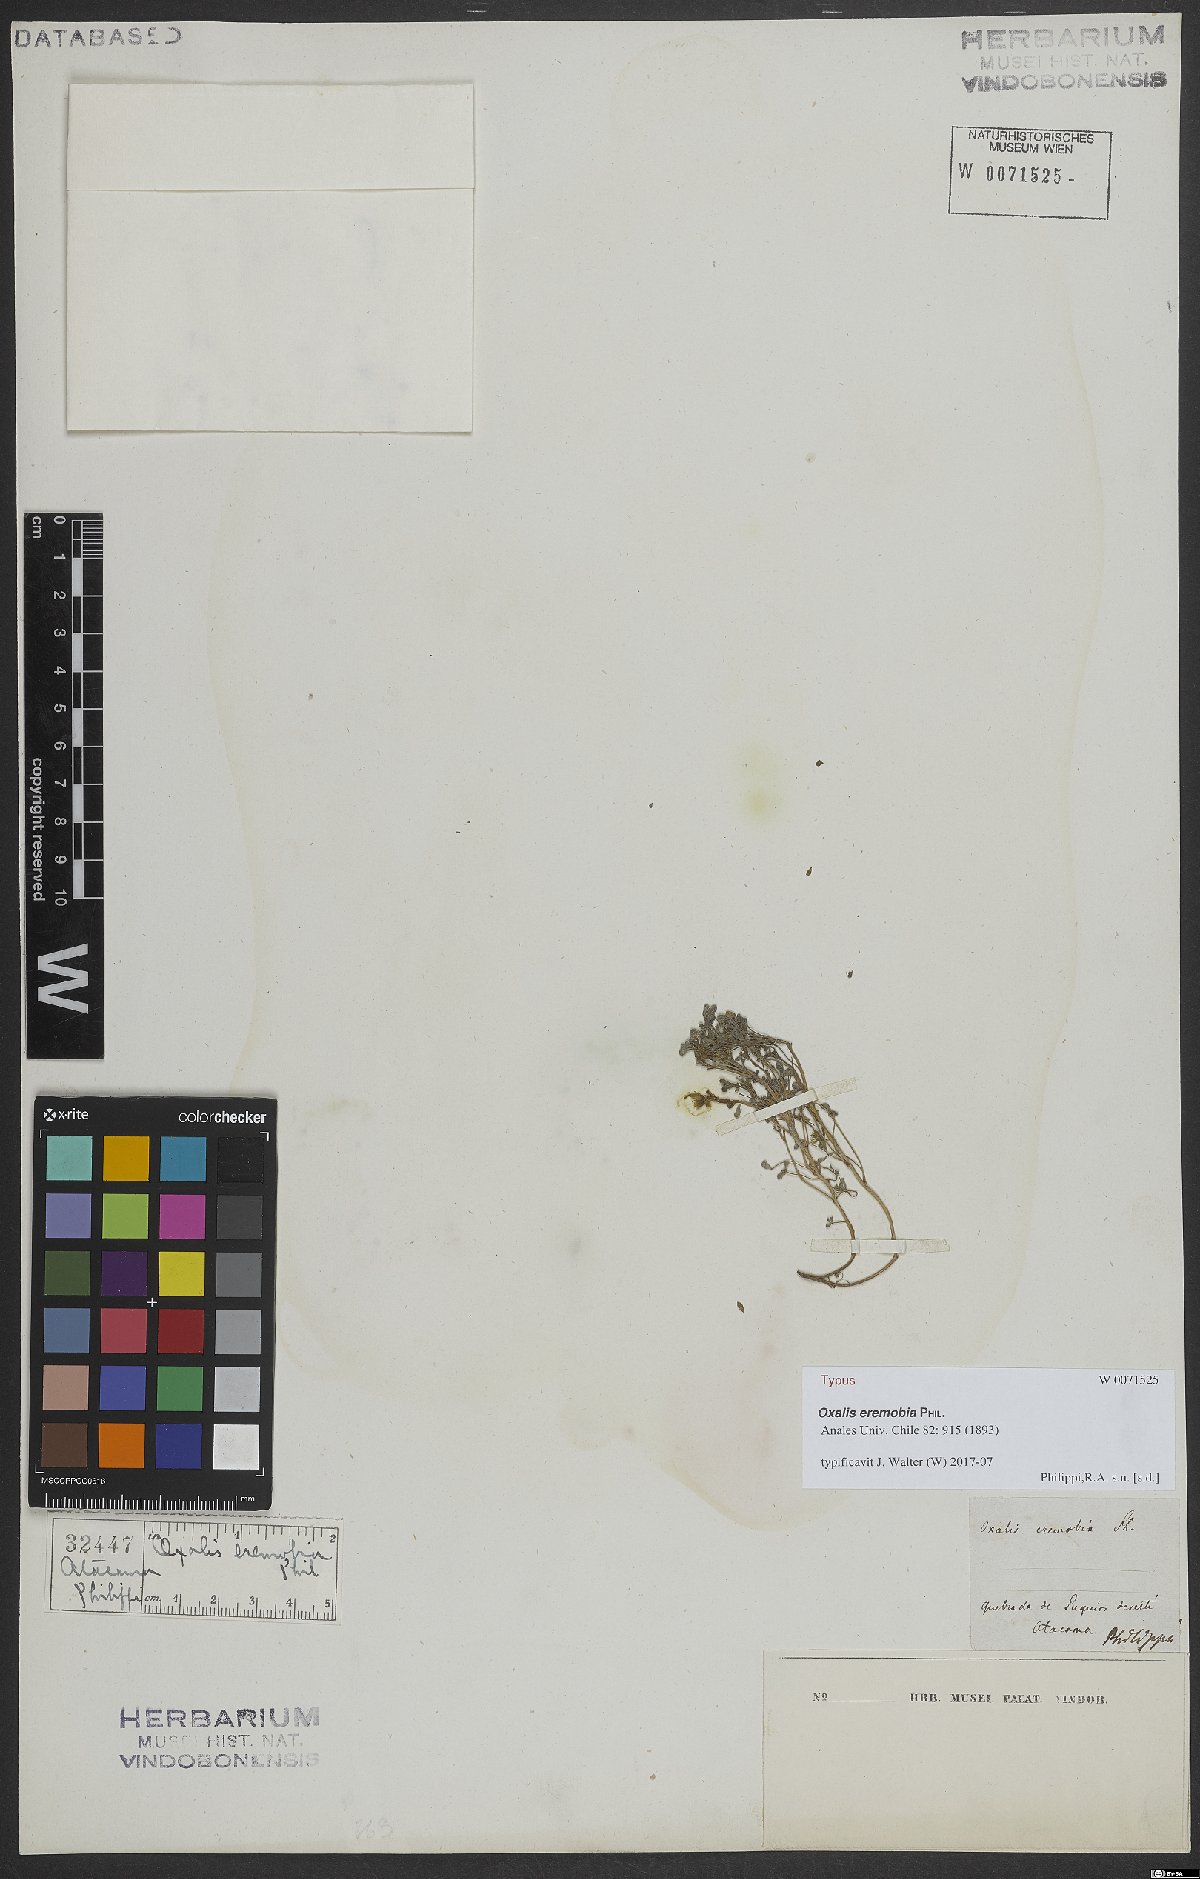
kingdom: Plantae
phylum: Tracheophyta
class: Magnoliopsida
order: Oxalidales
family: Oxalidaceae
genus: Oxalis
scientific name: Oxalis eremobia
